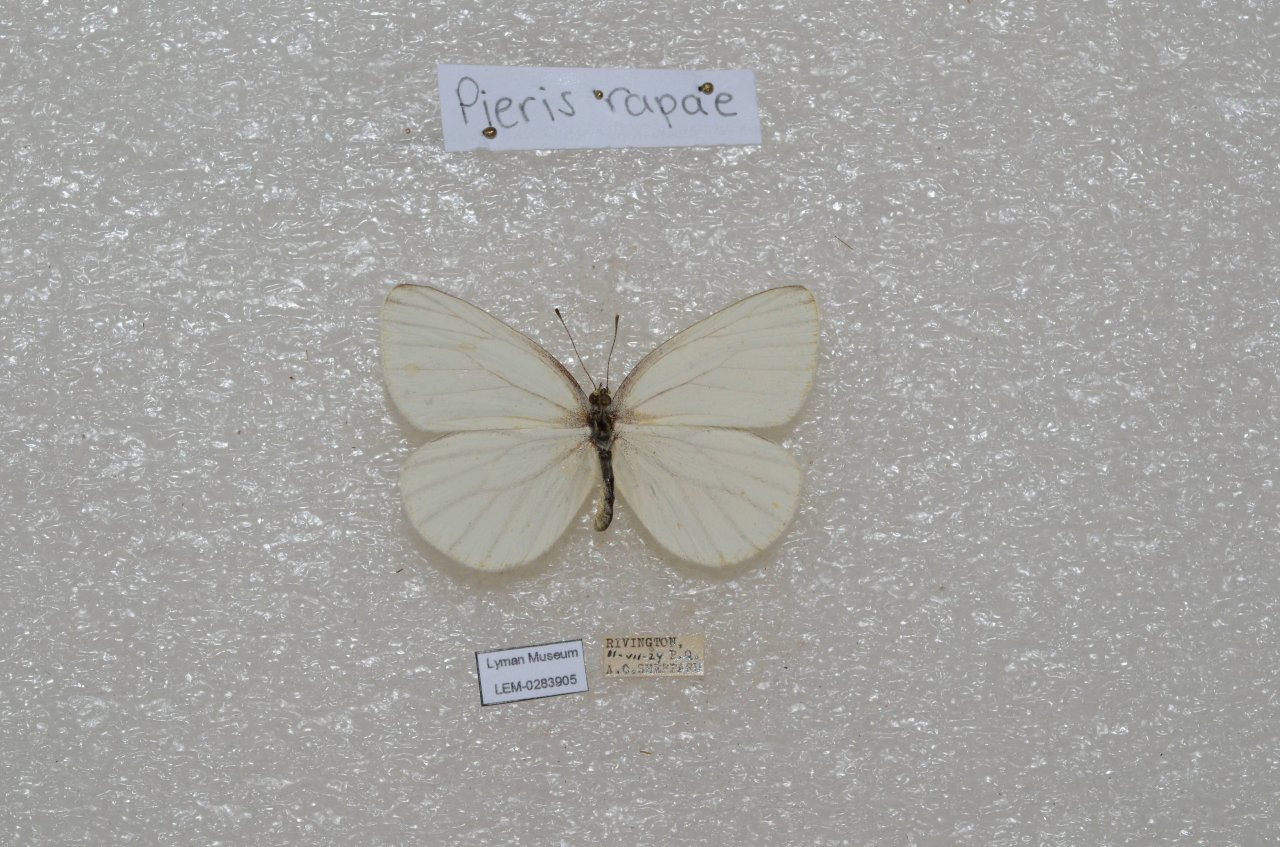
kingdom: Animalia
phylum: Arthropoda
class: Insecta
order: Lepidoptera
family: Pieridae
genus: Pieris
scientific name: Pieris oleracea
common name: Mustard White
